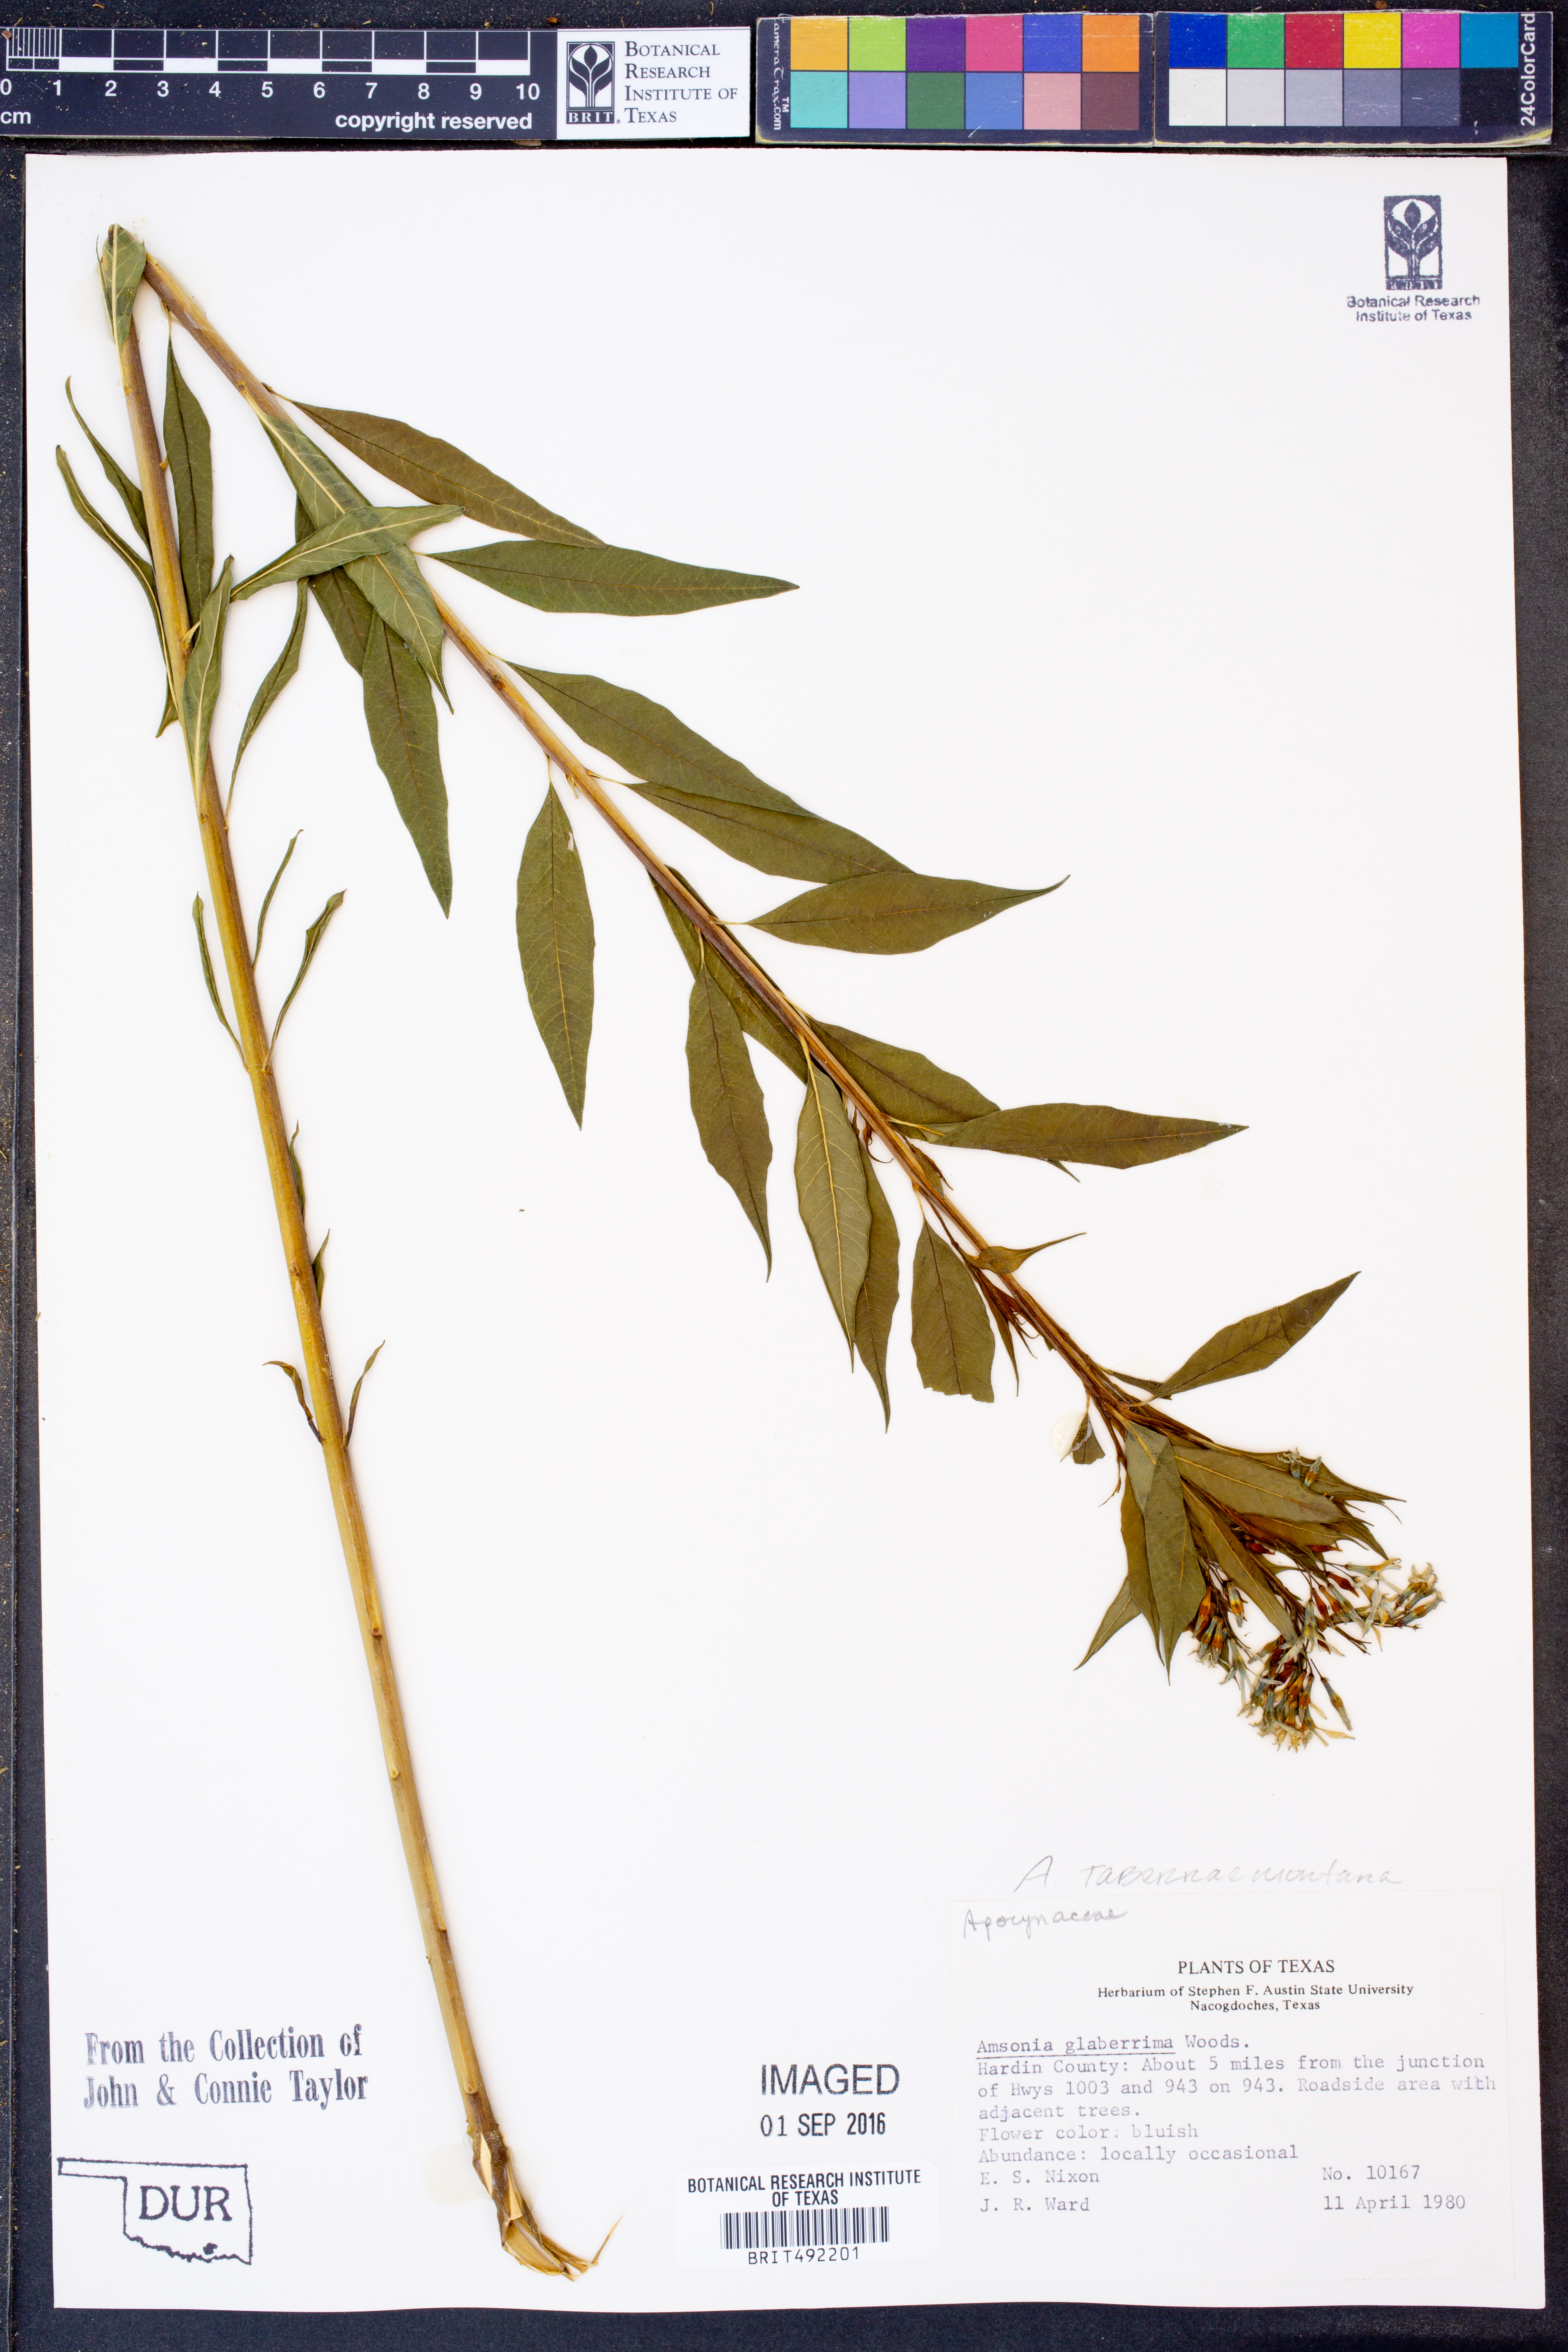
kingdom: Plantae
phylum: Tracheophyta
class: Magnoliopsida
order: Gentianales
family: Apocynaceae
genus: Amsonia
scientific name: Amsonia tabernaemontana
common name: Texas-star
